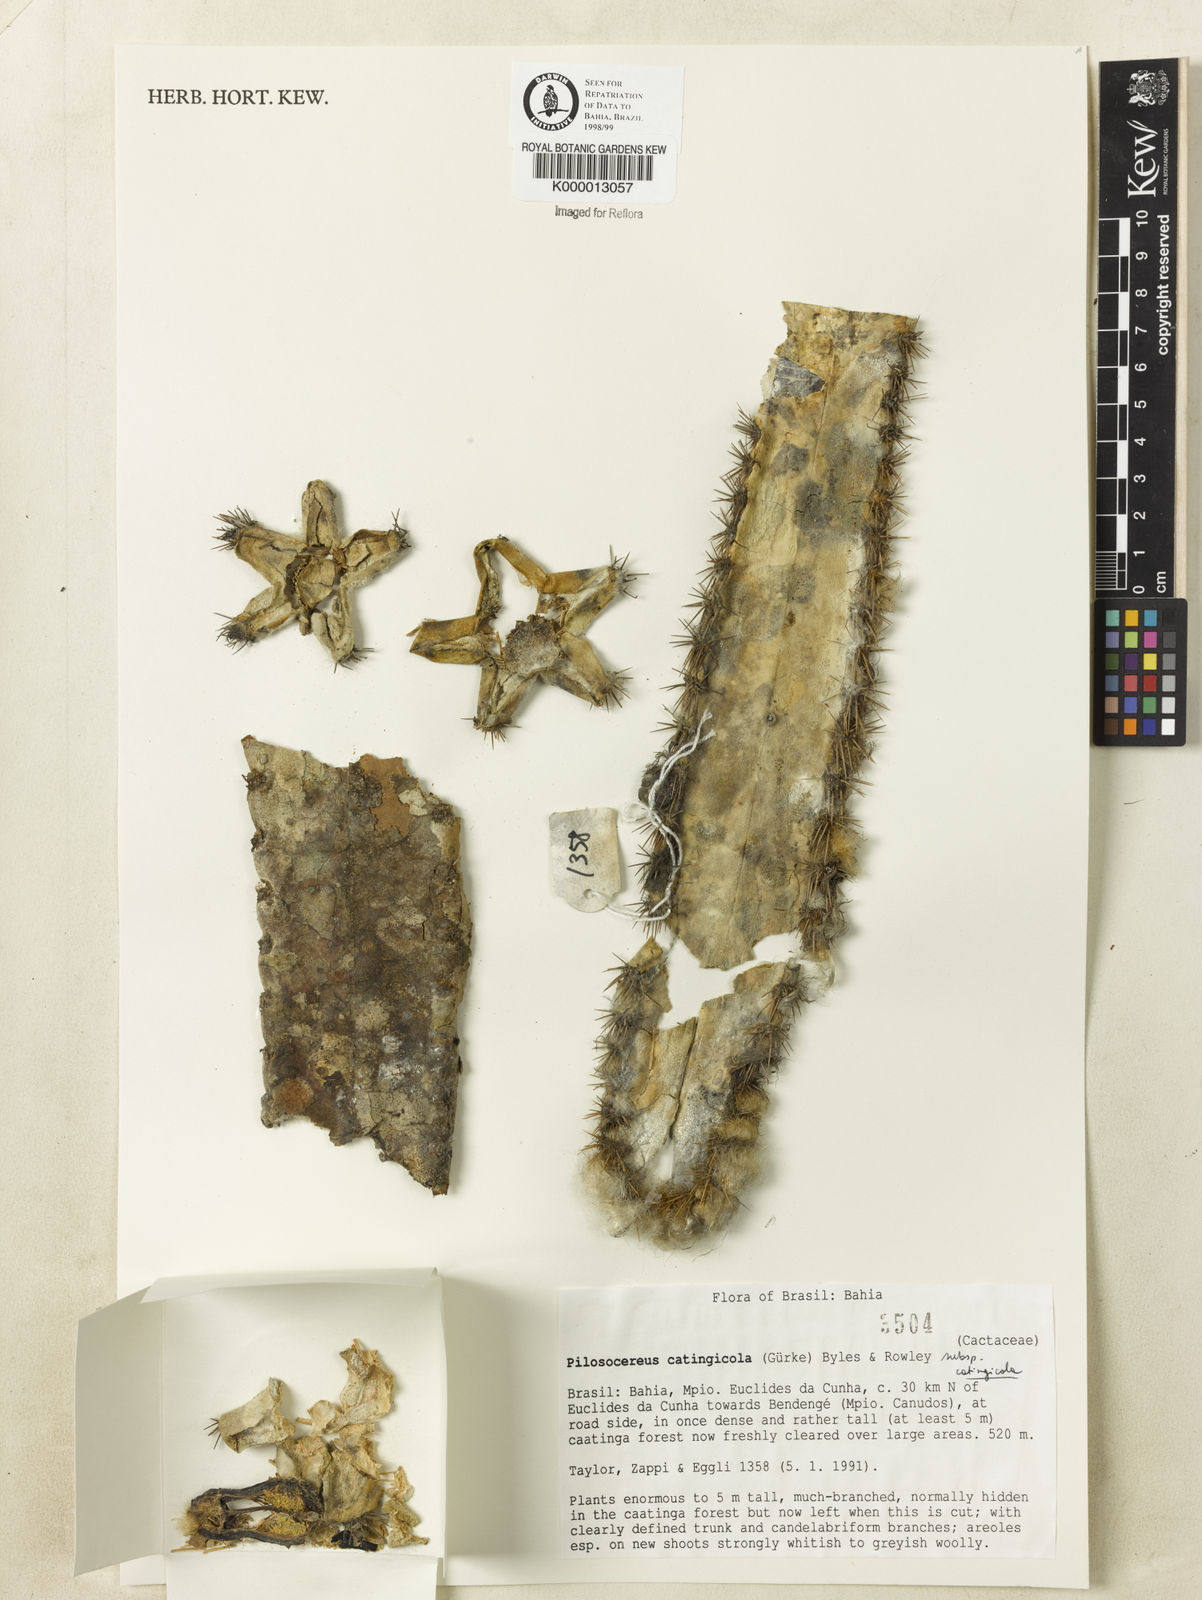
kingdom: Plantae
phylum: Tracheophyta
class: Magnoliopsida
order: Caryophyllales
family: Cactaceae
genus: Pilosocereus
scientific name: Pilosocereus catingicola
